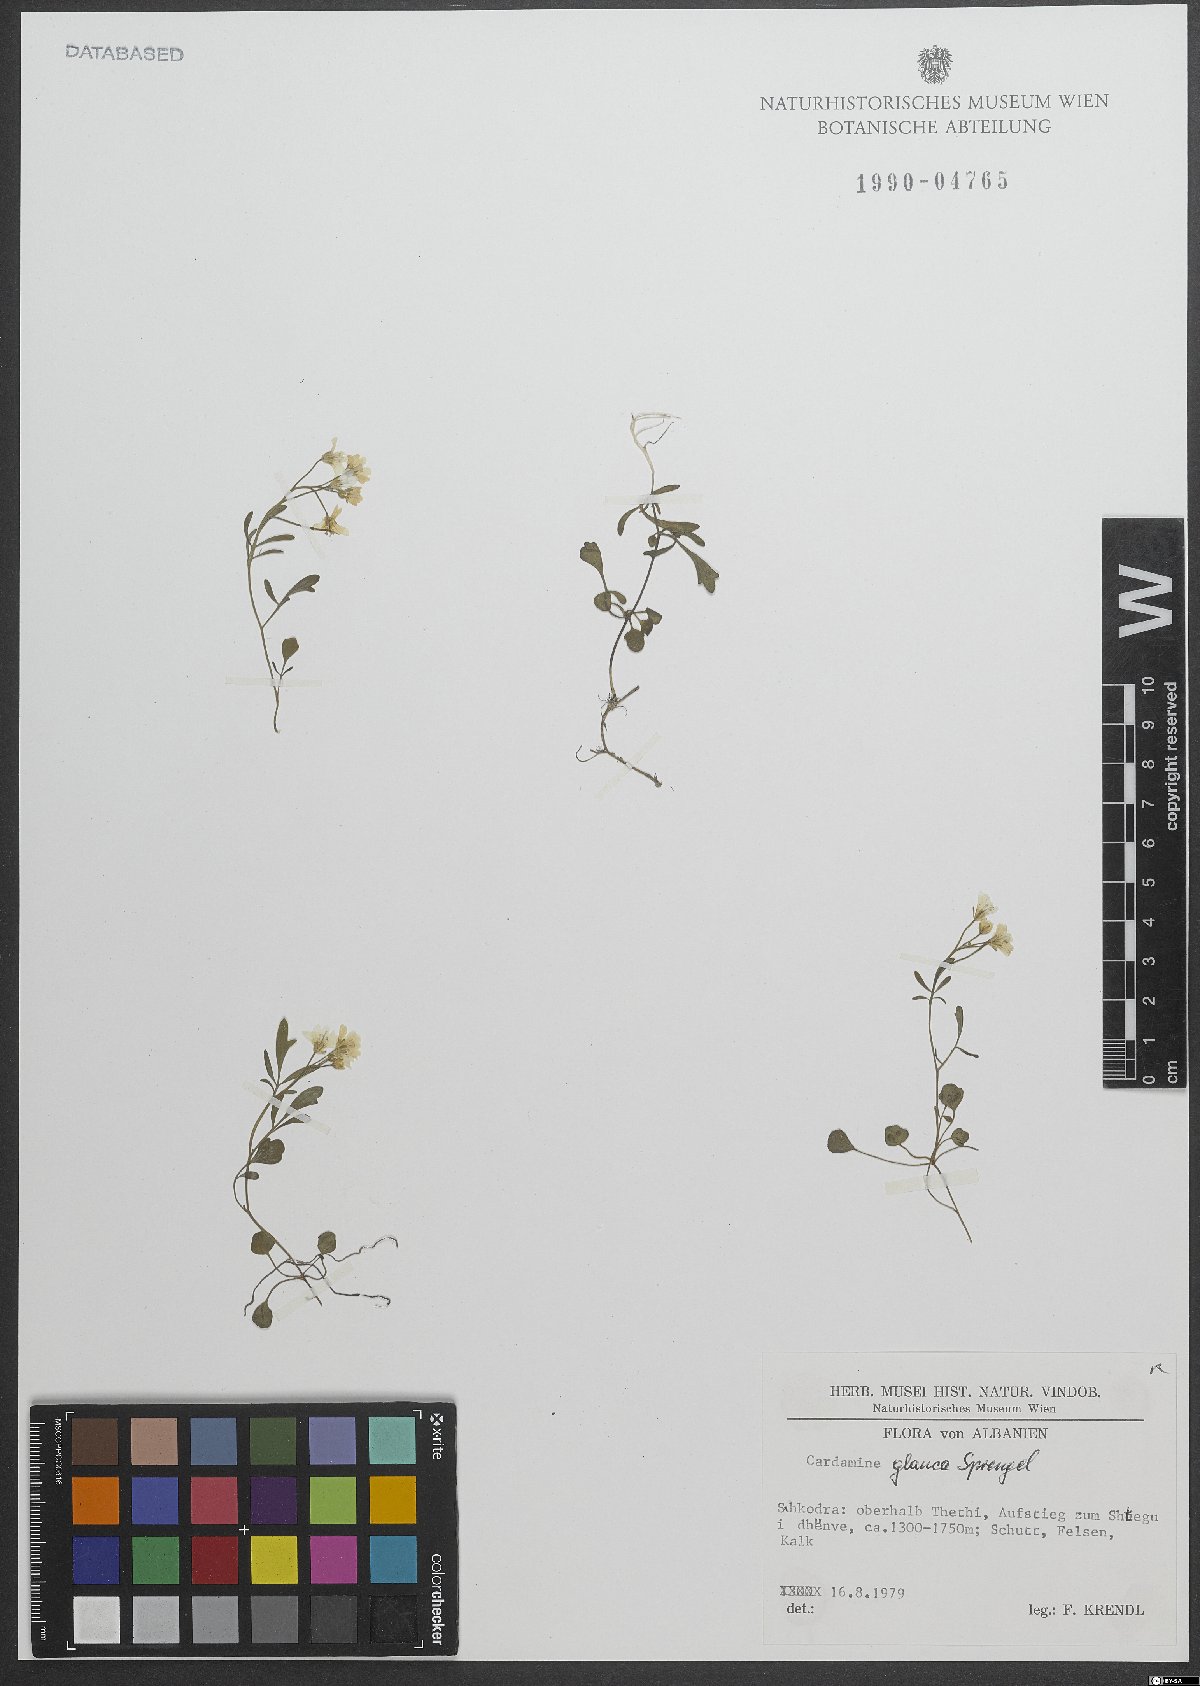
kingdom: Plantae
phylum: Tracheophyta
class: Magnoliopsida
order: Brassicales
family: Brassicaceae
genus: Cardamine
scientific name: Cardamine glauca
